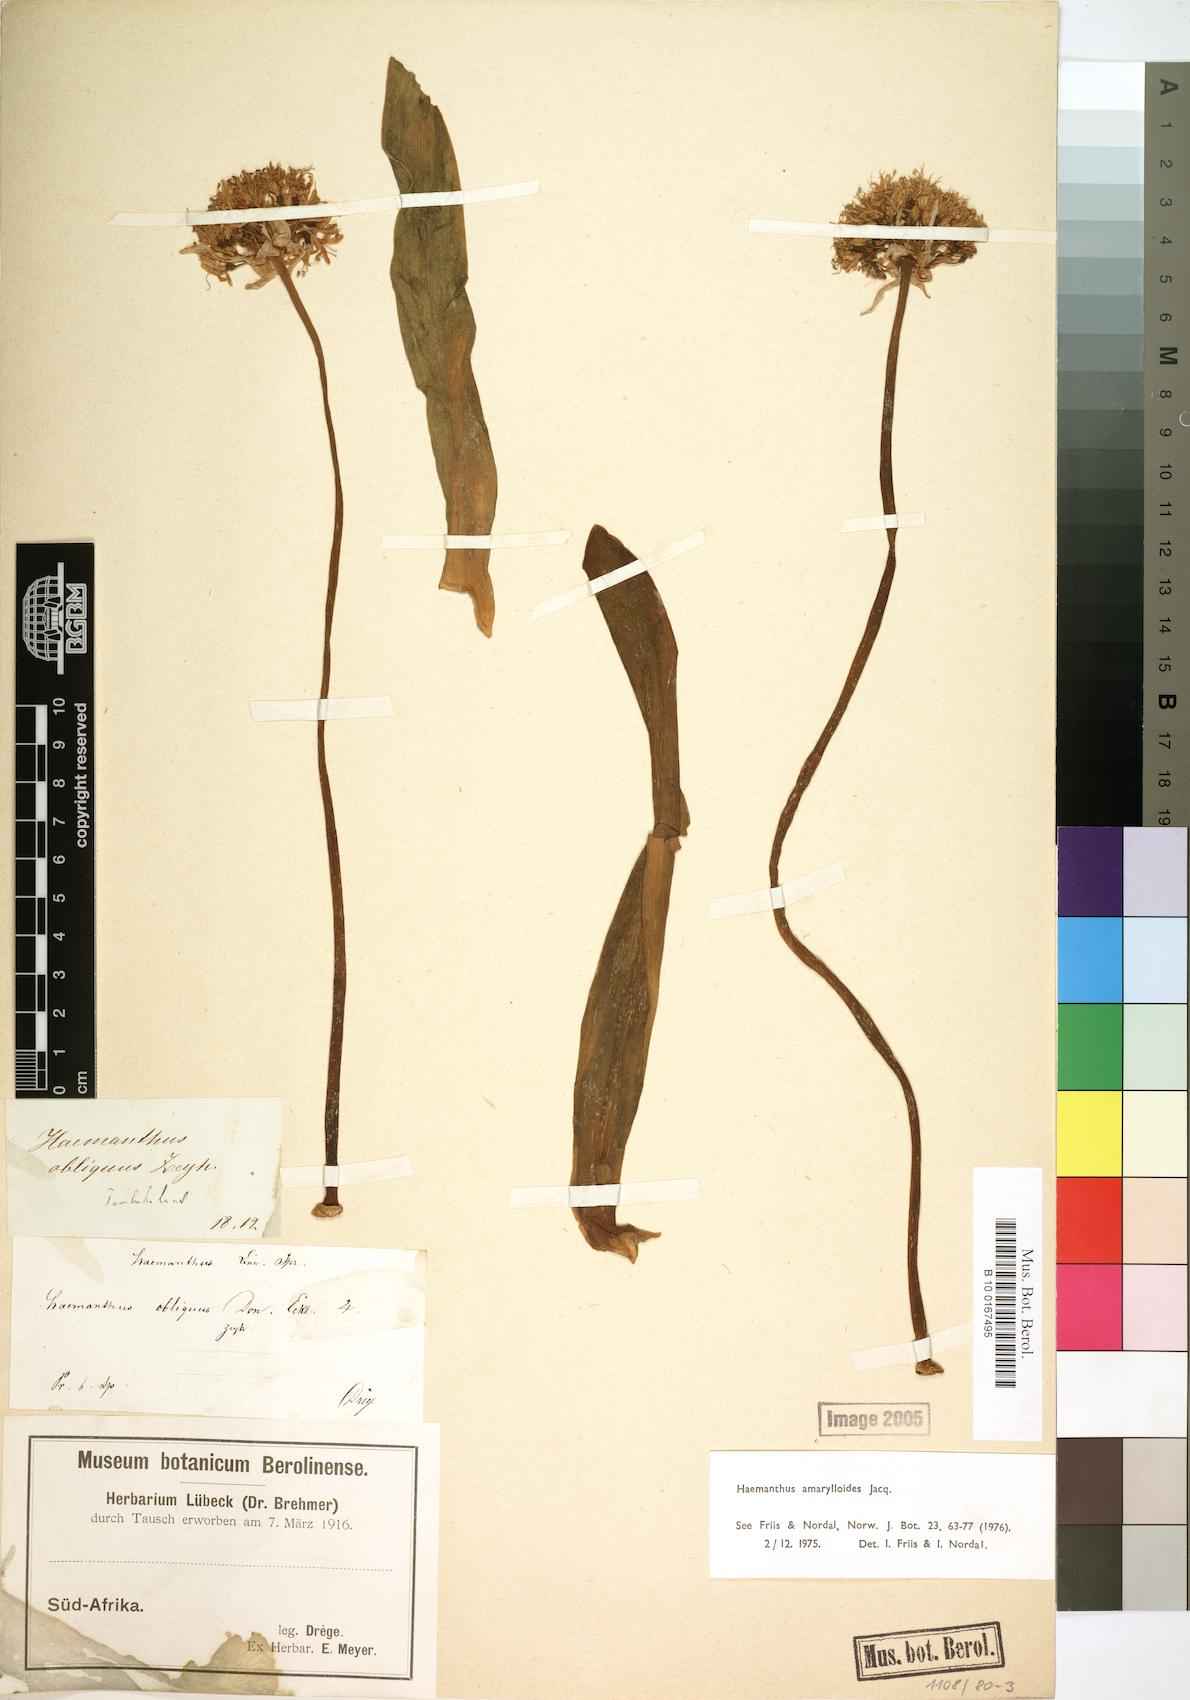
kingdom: Plantae
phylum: Tracheophyta
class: Liliopsida
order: Asparagales
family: Amaryllidaceae
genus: Haemanthus
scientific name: Haemanthus amarylloides
